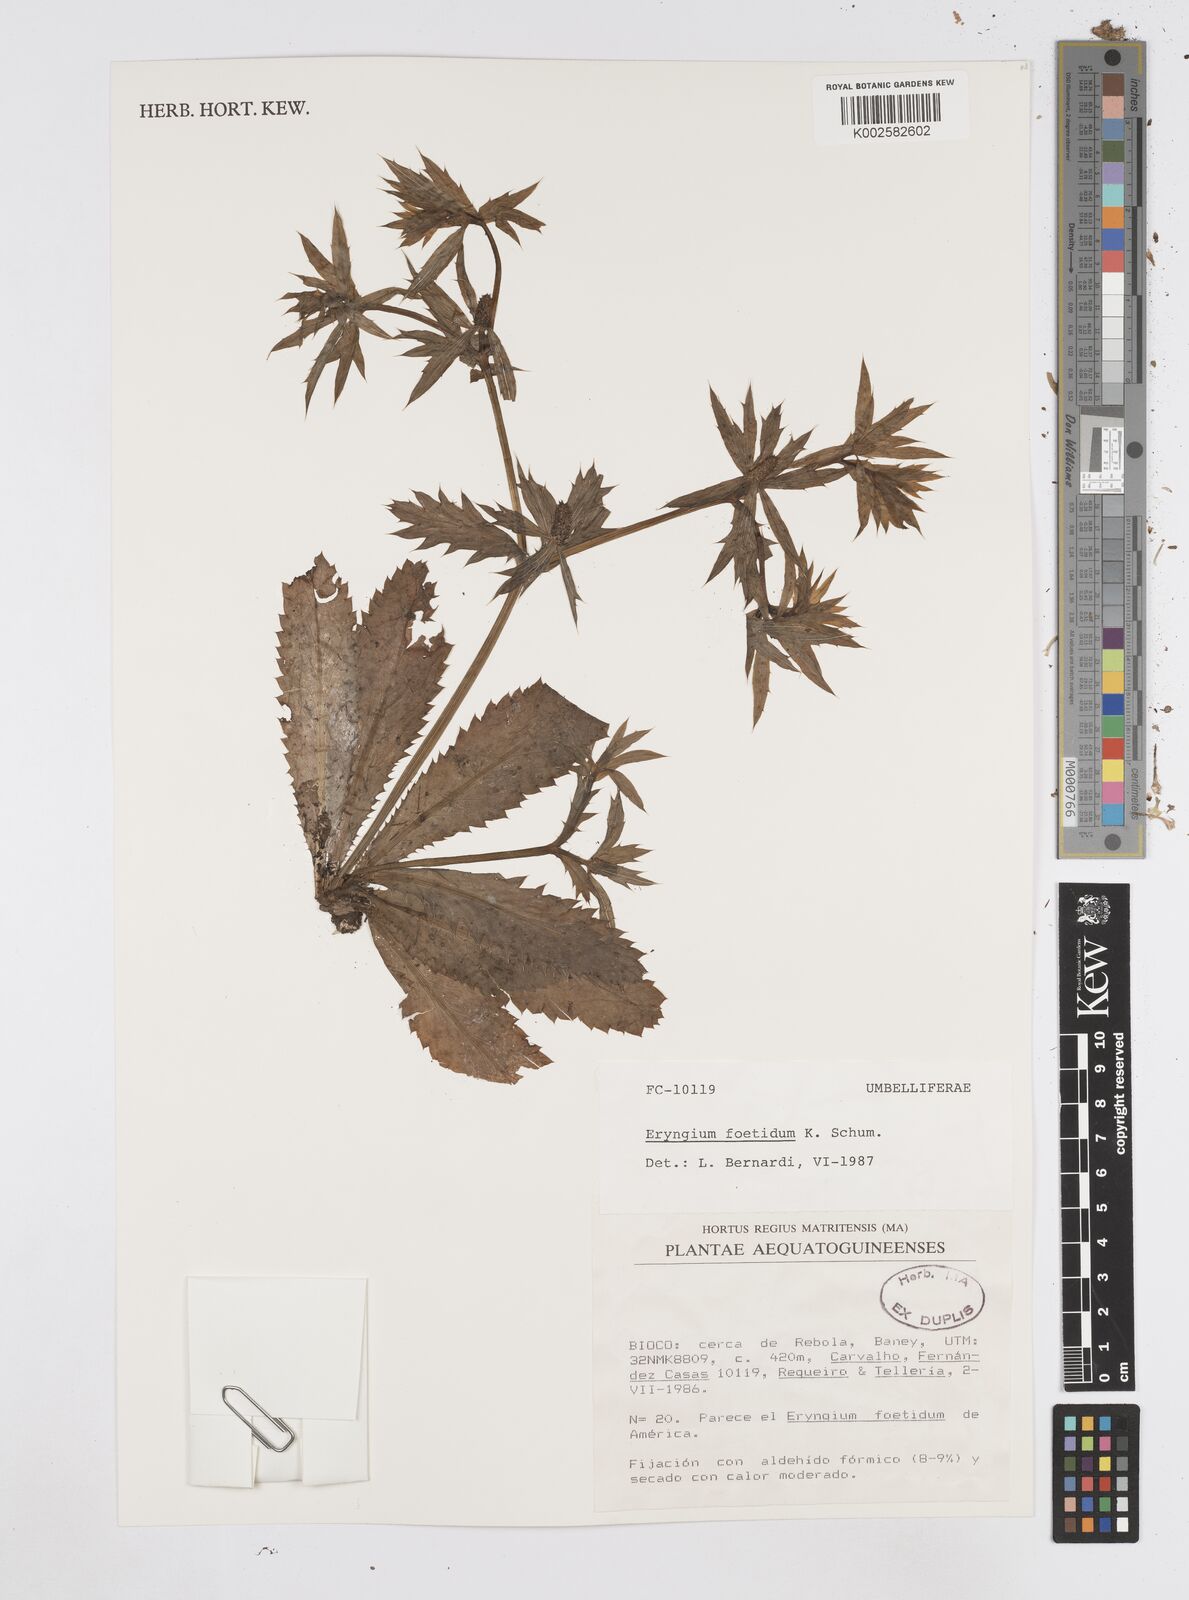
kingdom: Plantae
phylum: Tracheophyta
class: Magnoliopsida
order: Apiales
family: Apiaceae
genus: Eryngium
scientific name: Eryngium foetidum
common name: Fitweed
